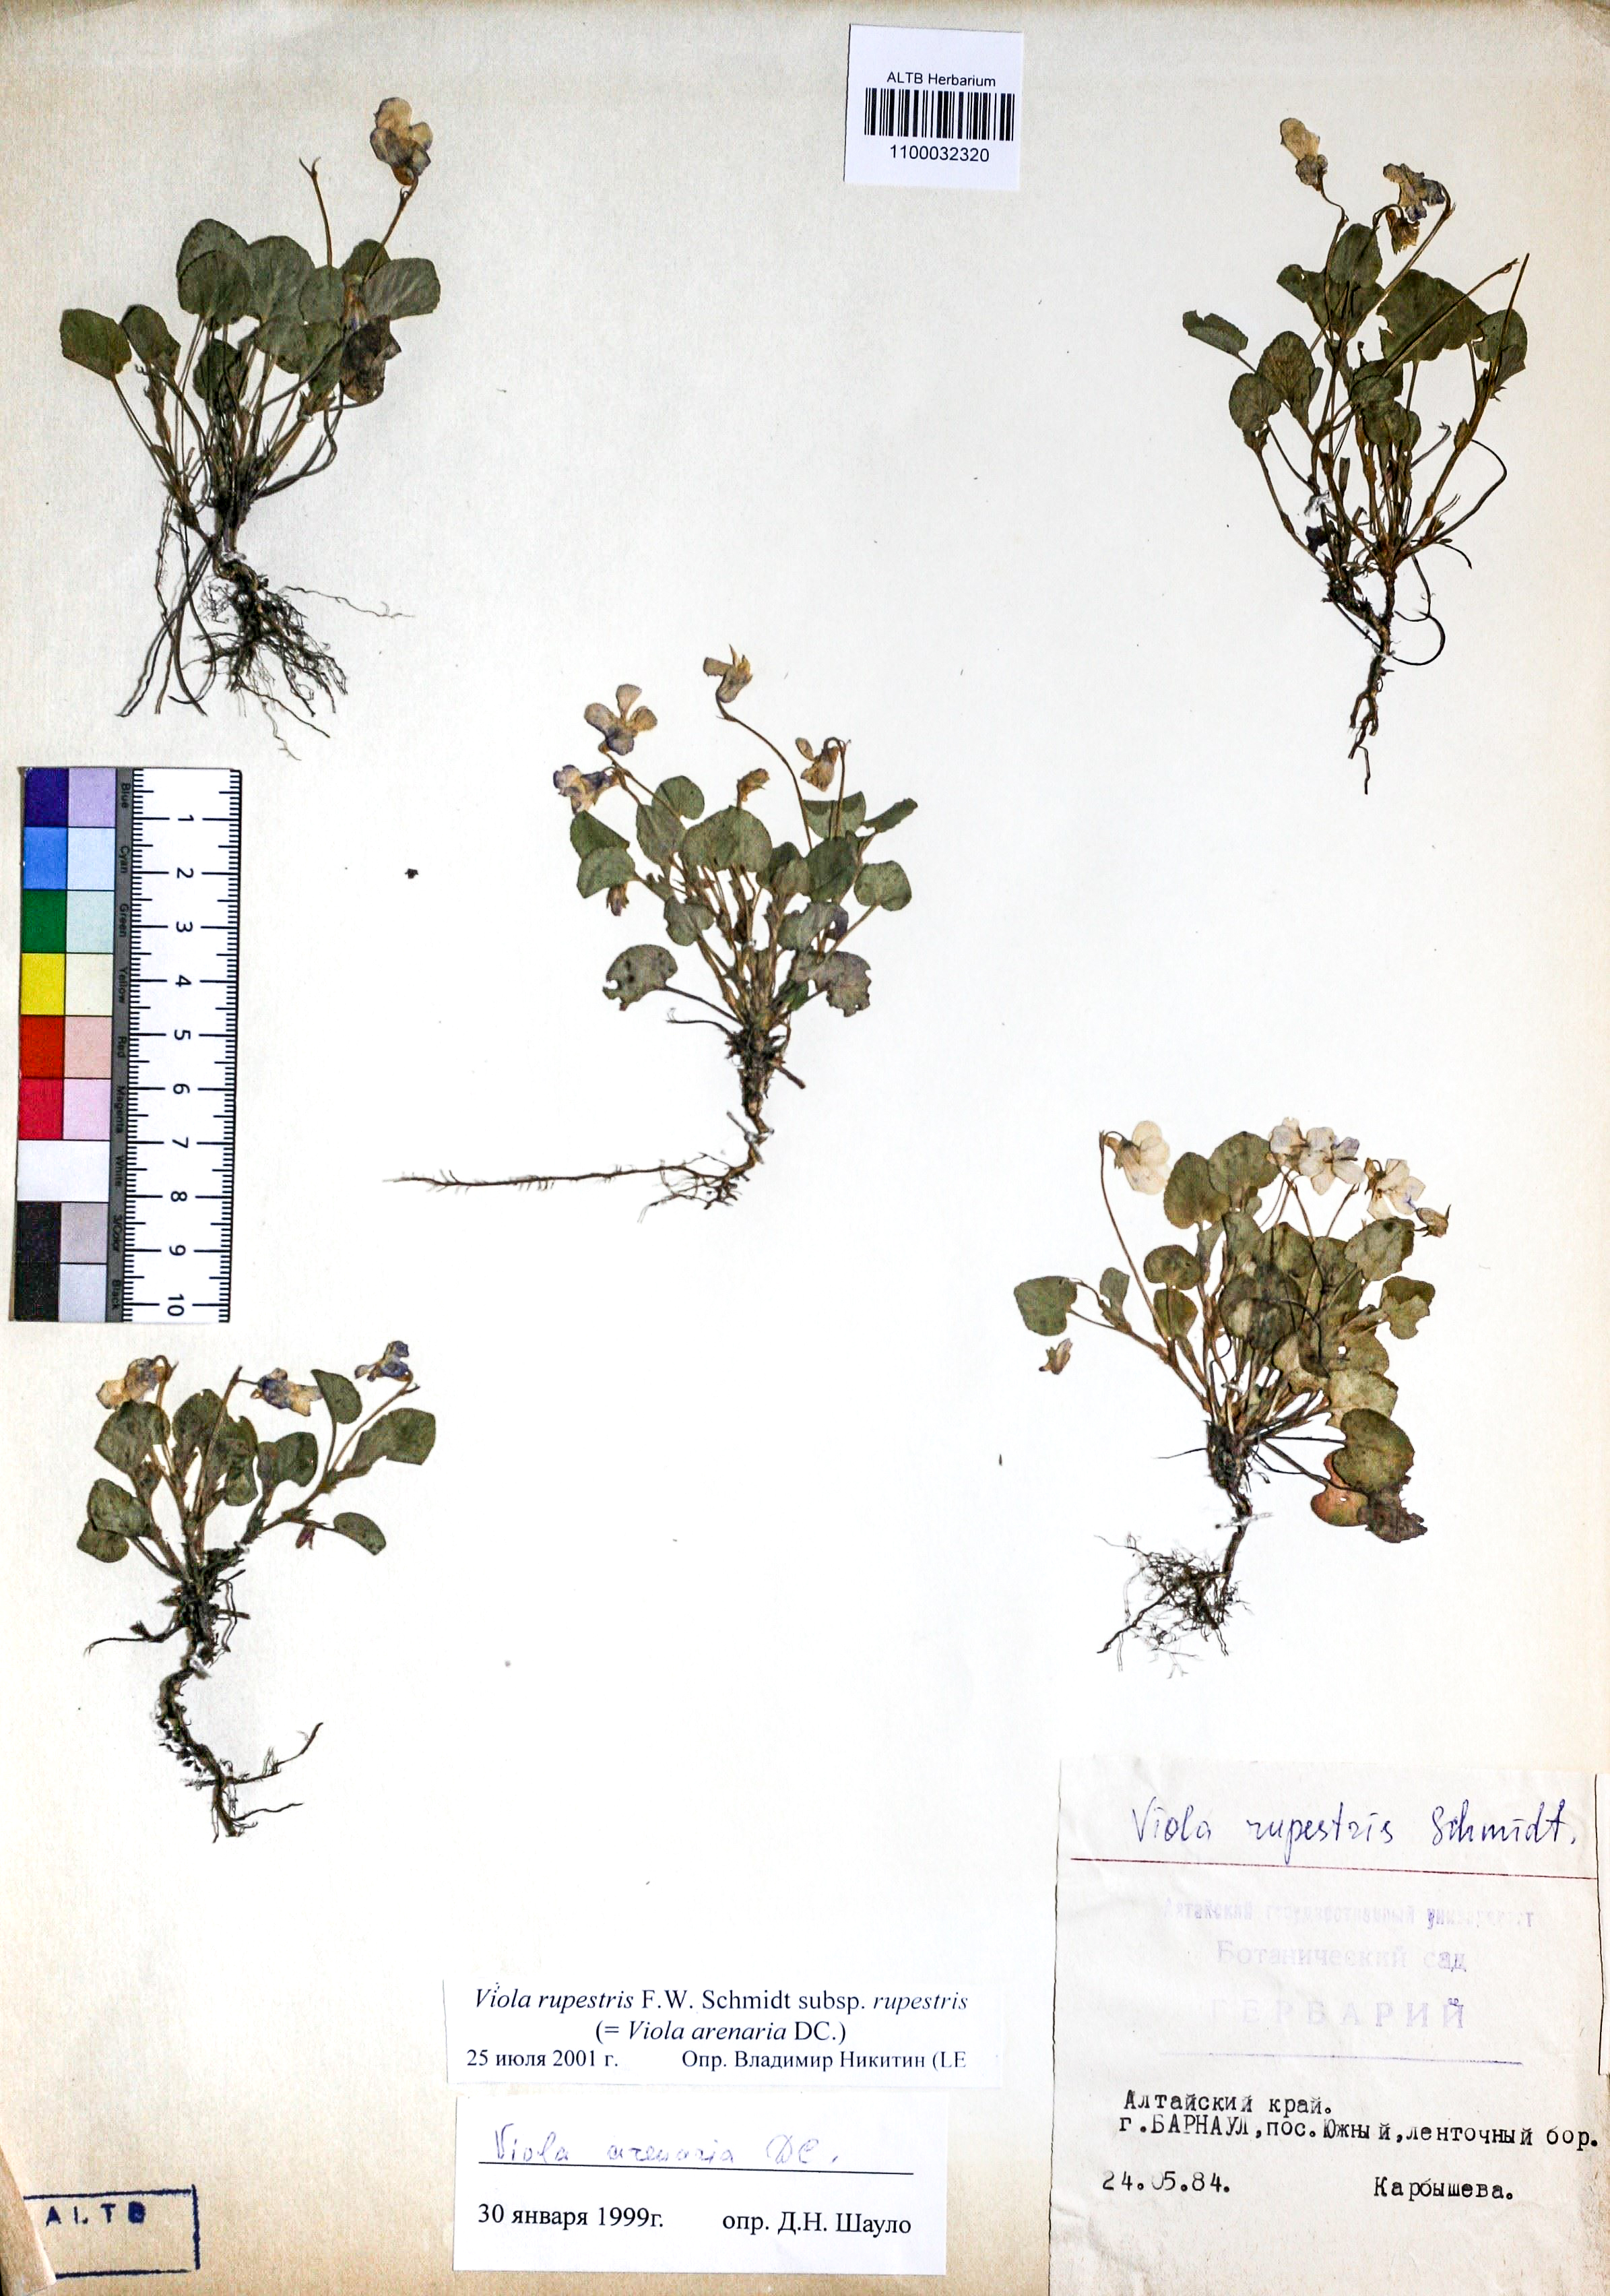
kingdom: Plantae
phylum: Tracheophyta
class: Magnoliopsida
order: Malpighiales
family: Violaceae
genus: Viola
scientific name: Viola rupestris
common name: Teesdale violet
